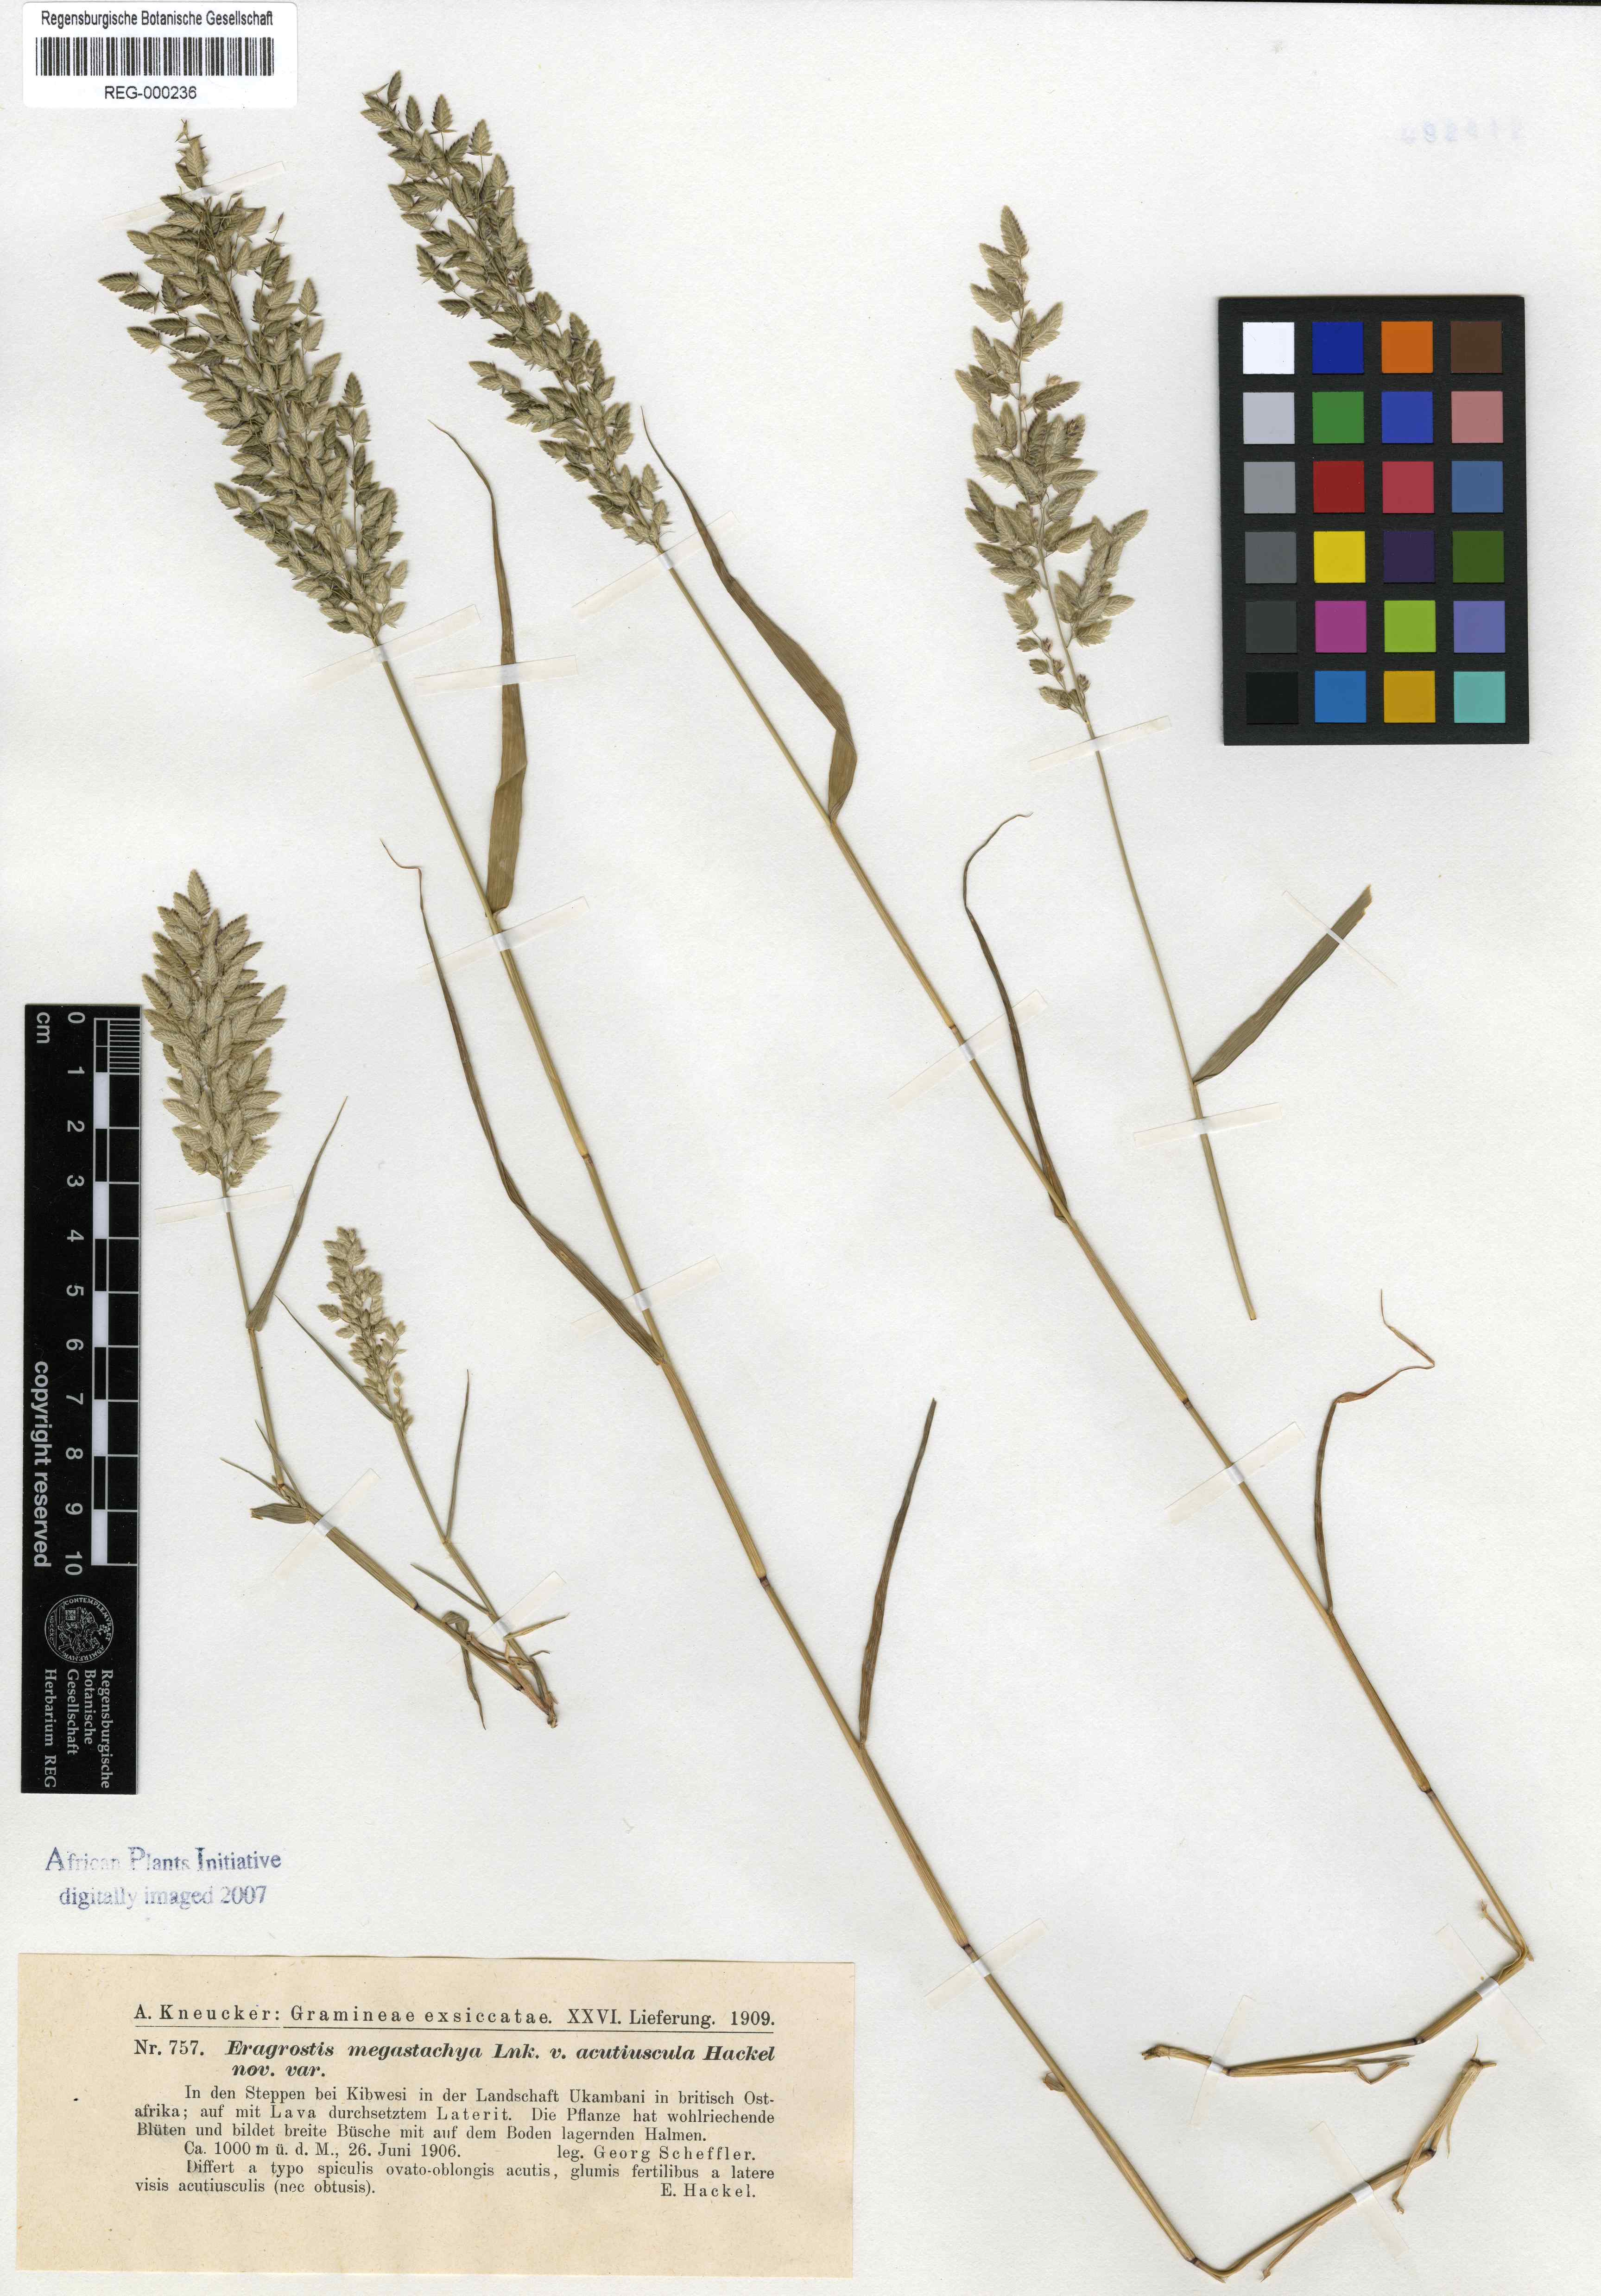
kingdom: Plantae
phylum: Tracheophyta
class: Liliopsida
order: Poales
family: Poaceae
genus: Eragrostis
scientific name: Eragrostis cilianensis
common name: Stinkgrass
